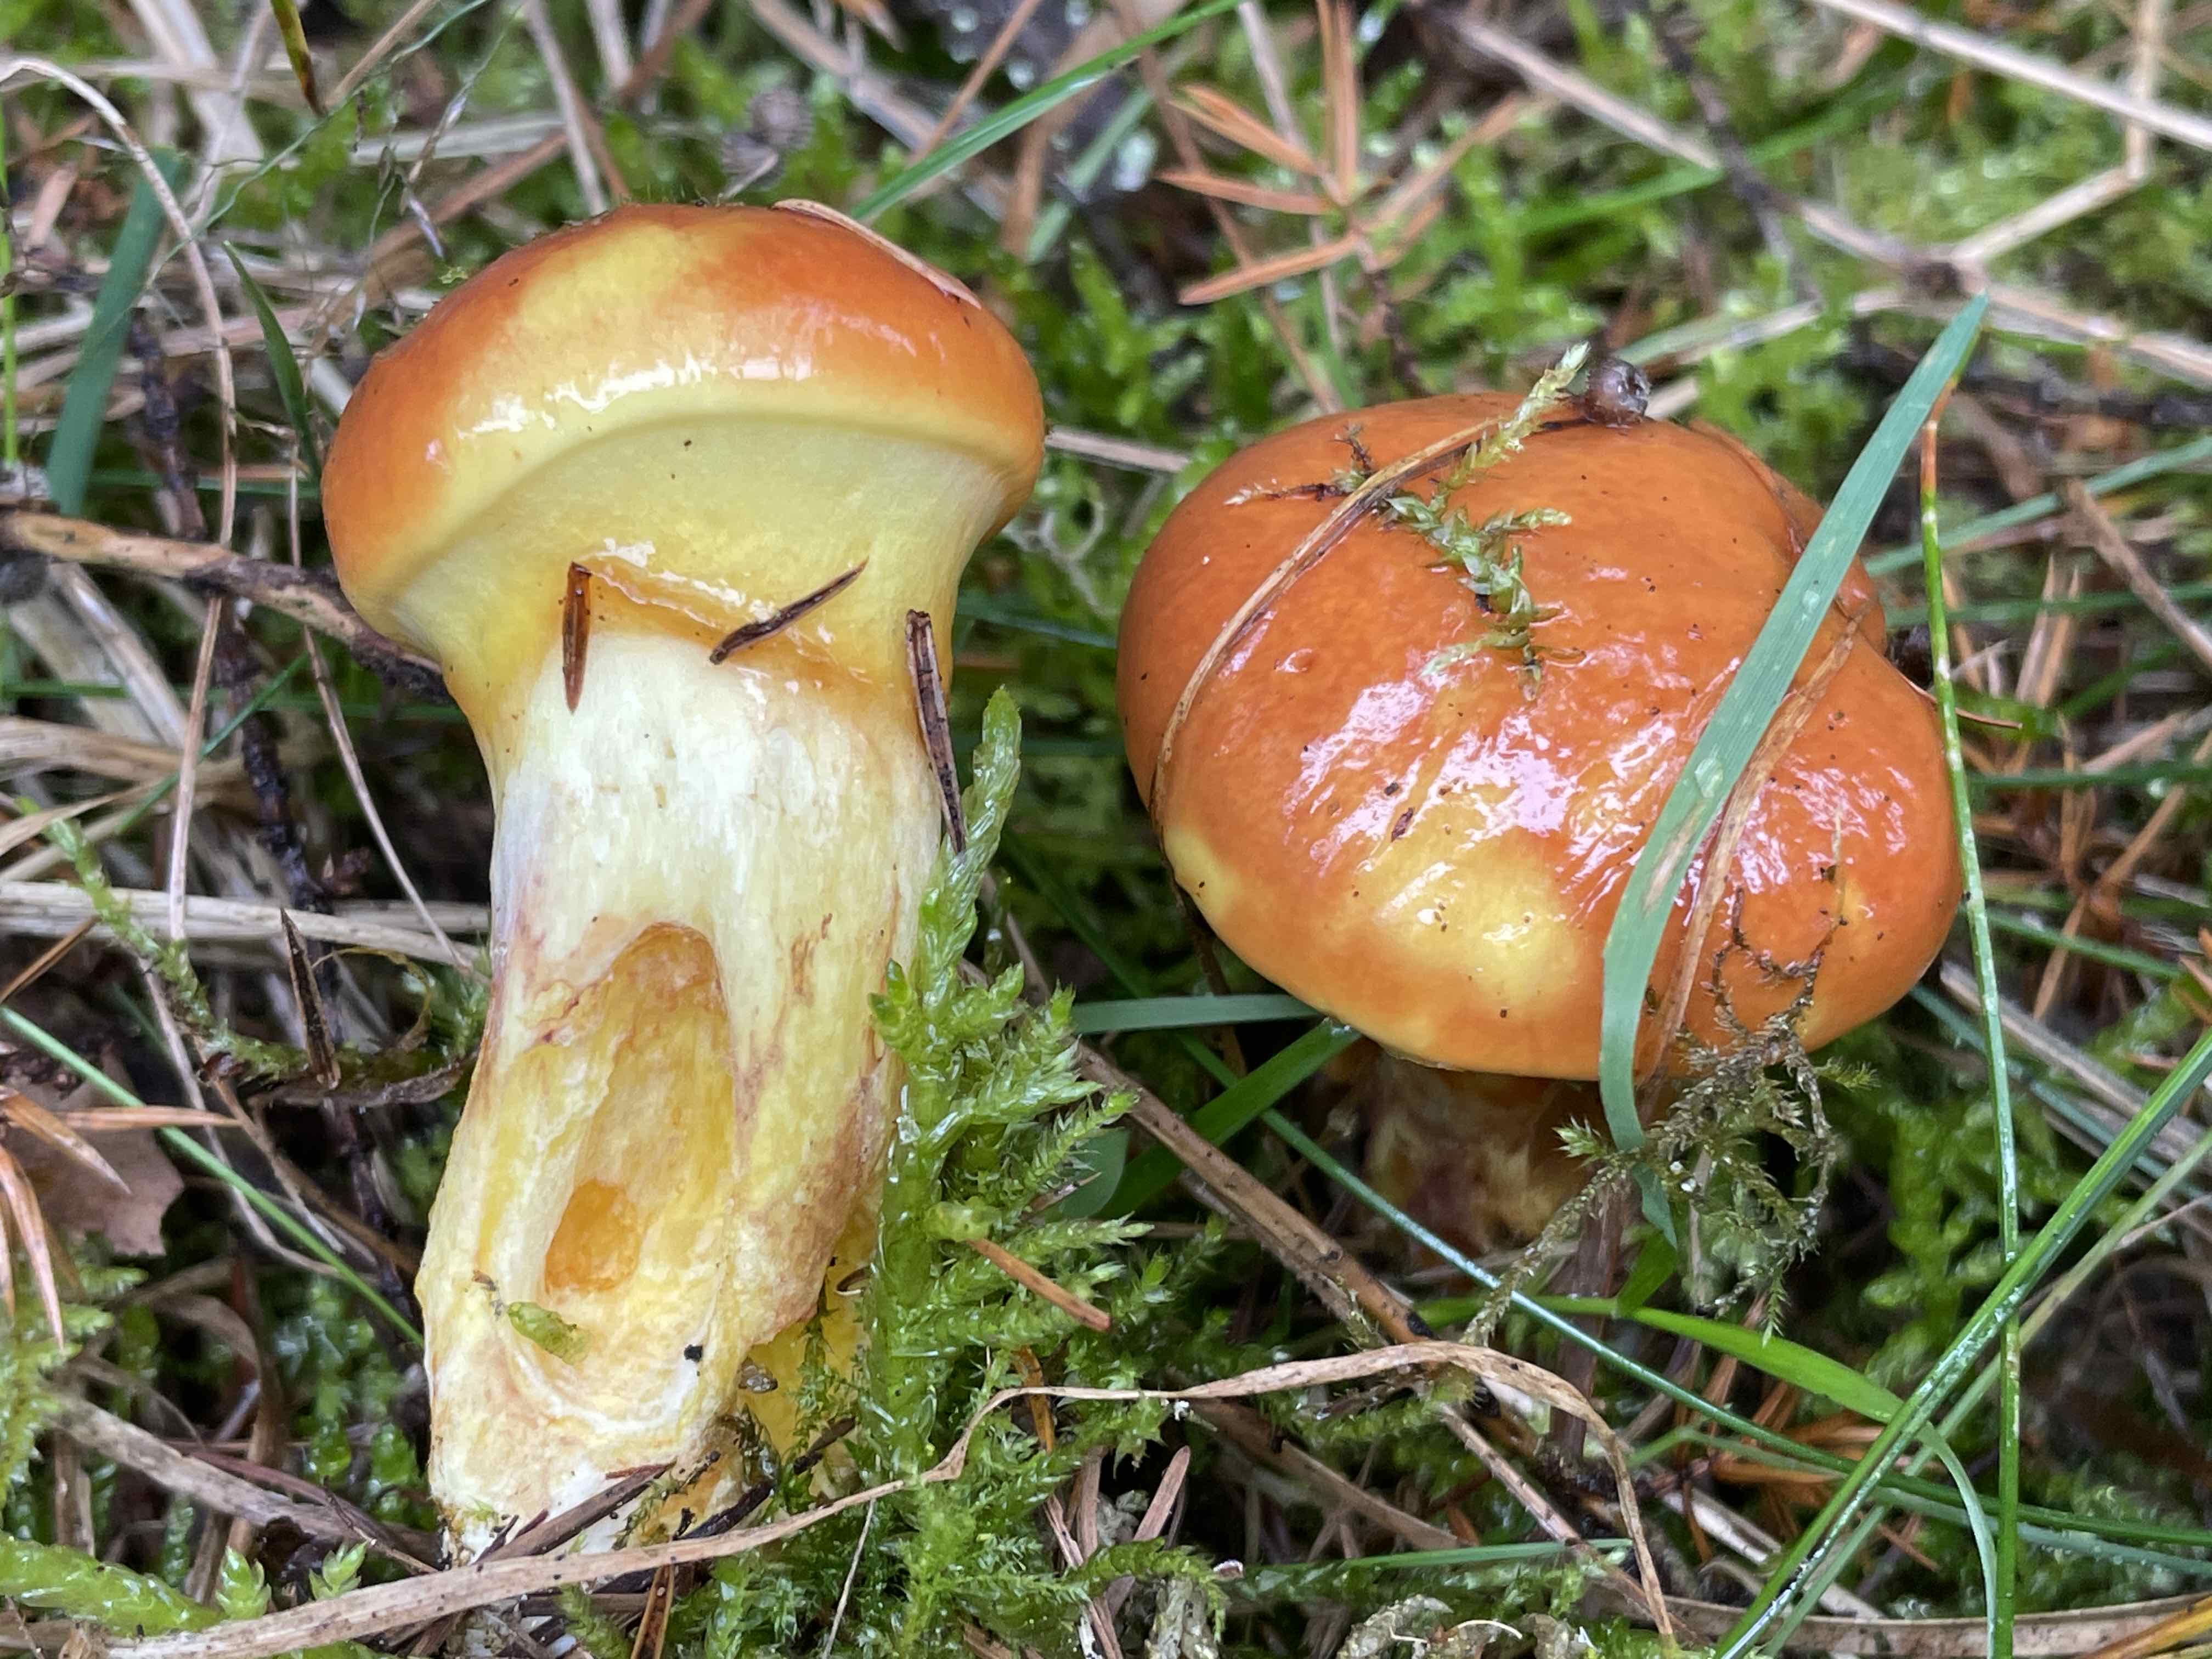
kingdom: Fungi
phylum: Basidiomycota
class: Agaricomycetes
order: Boletales
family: Suillaceae
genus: Suillus
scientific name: Suillus grevillei
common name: lærke-slimrørhat
